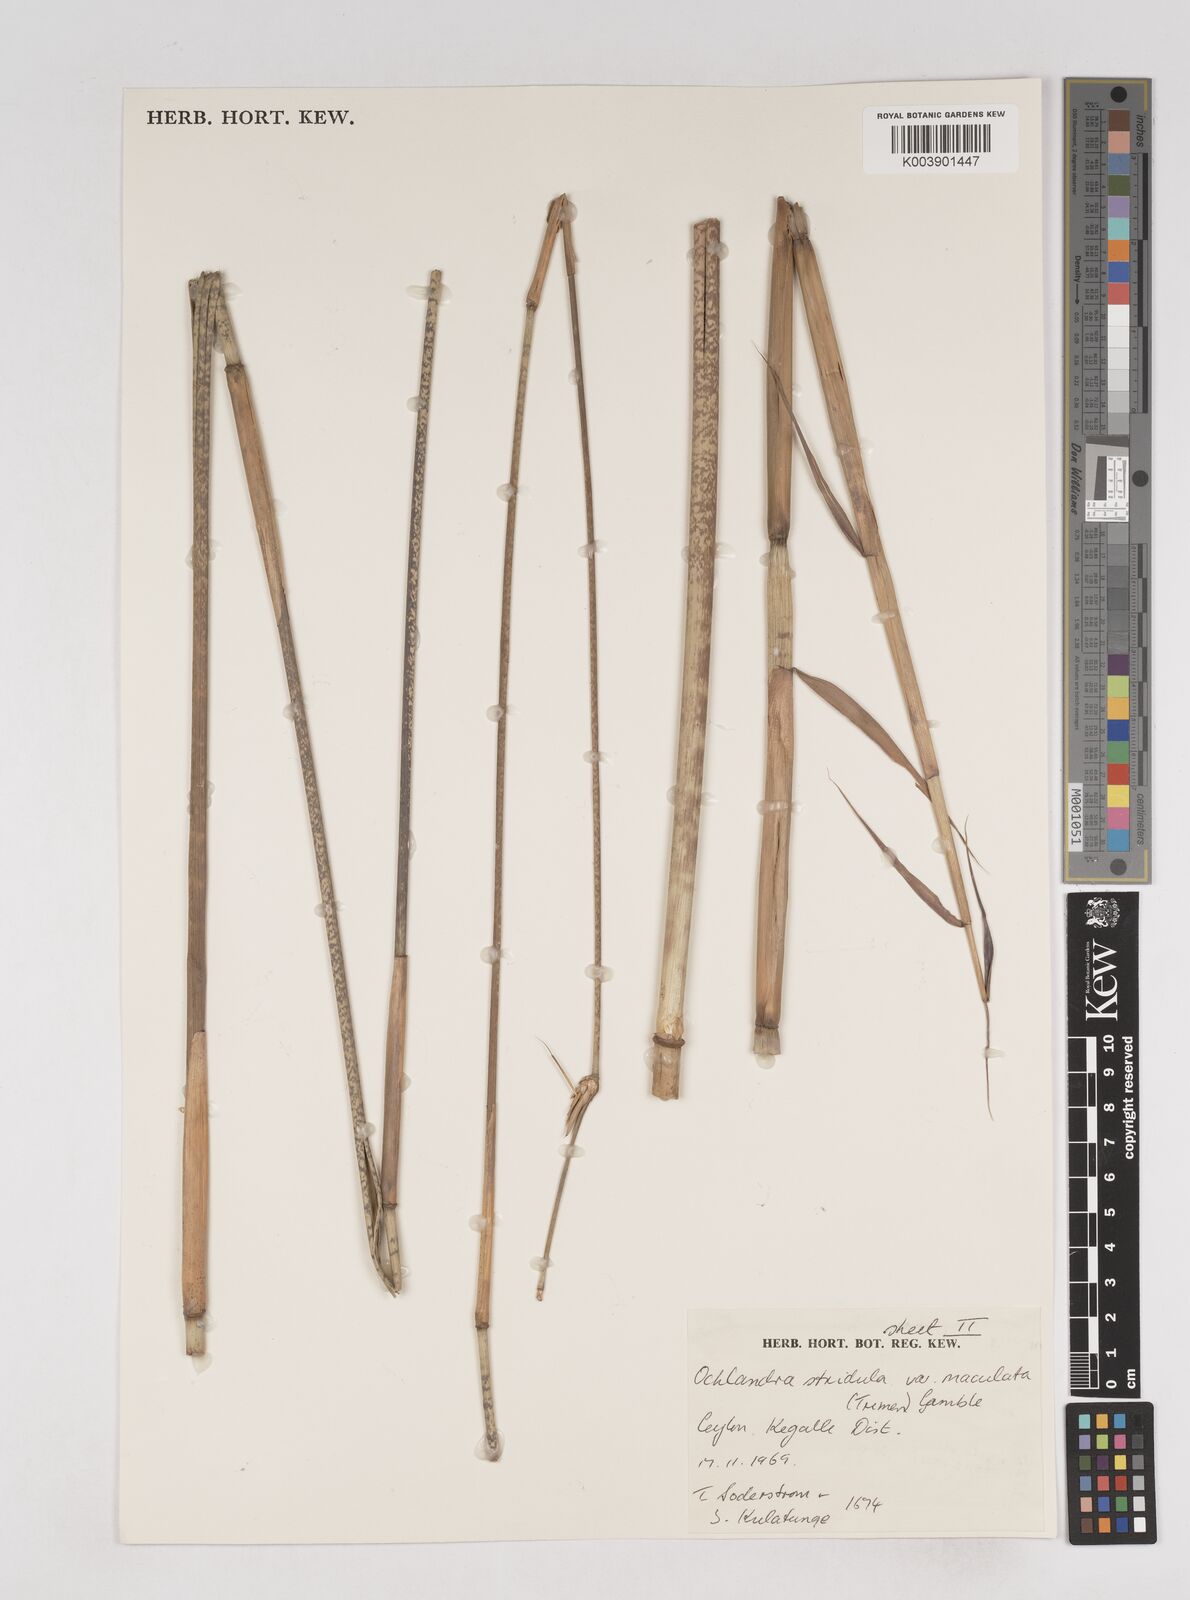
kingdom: Plantae
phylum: Tracheophyta
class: Liliopsida
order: Poales
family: Poaceae
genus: Ochlandra
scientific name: Ochlandra stridula
